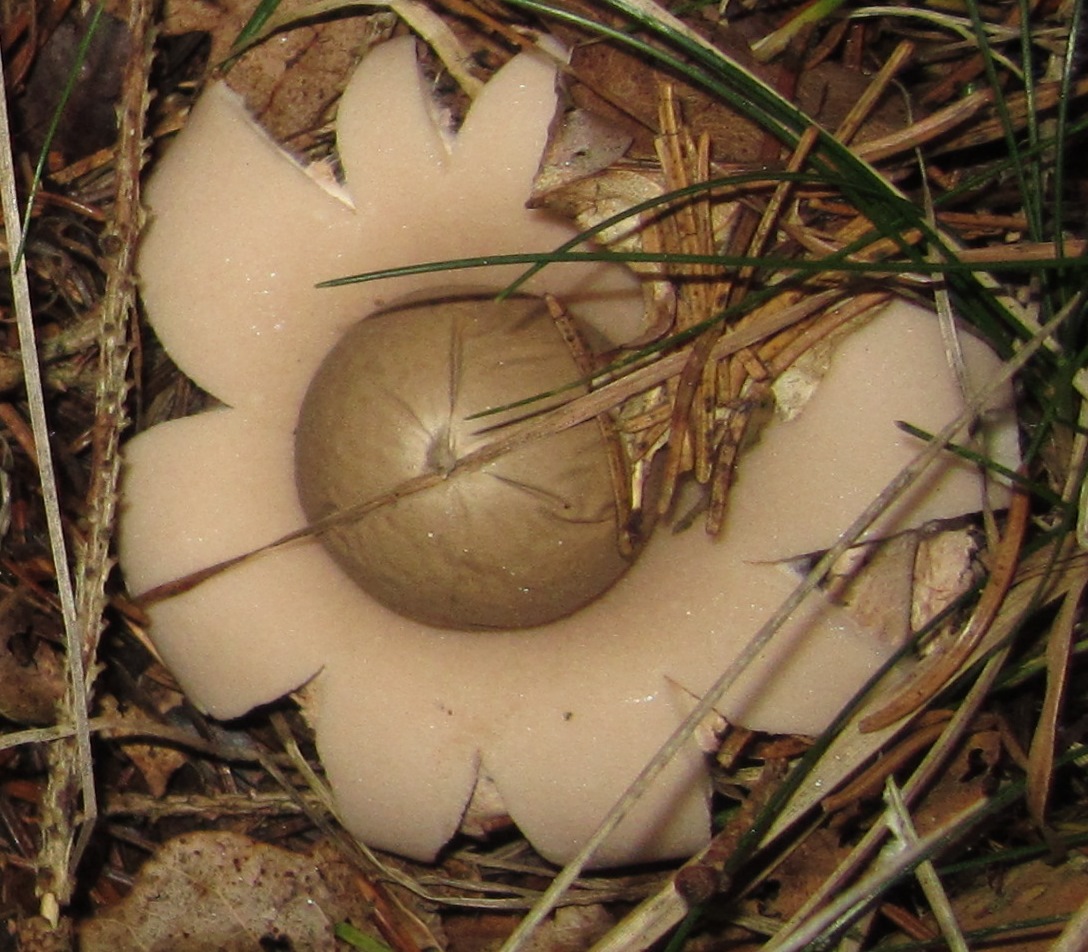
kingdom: Fungi
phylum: Basidiomycota
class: Agaricomycetes
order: Geastrales
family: Geastraceae
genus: Geastrum
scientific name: Geastrum fimbriatum
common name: frynset stjernebold
